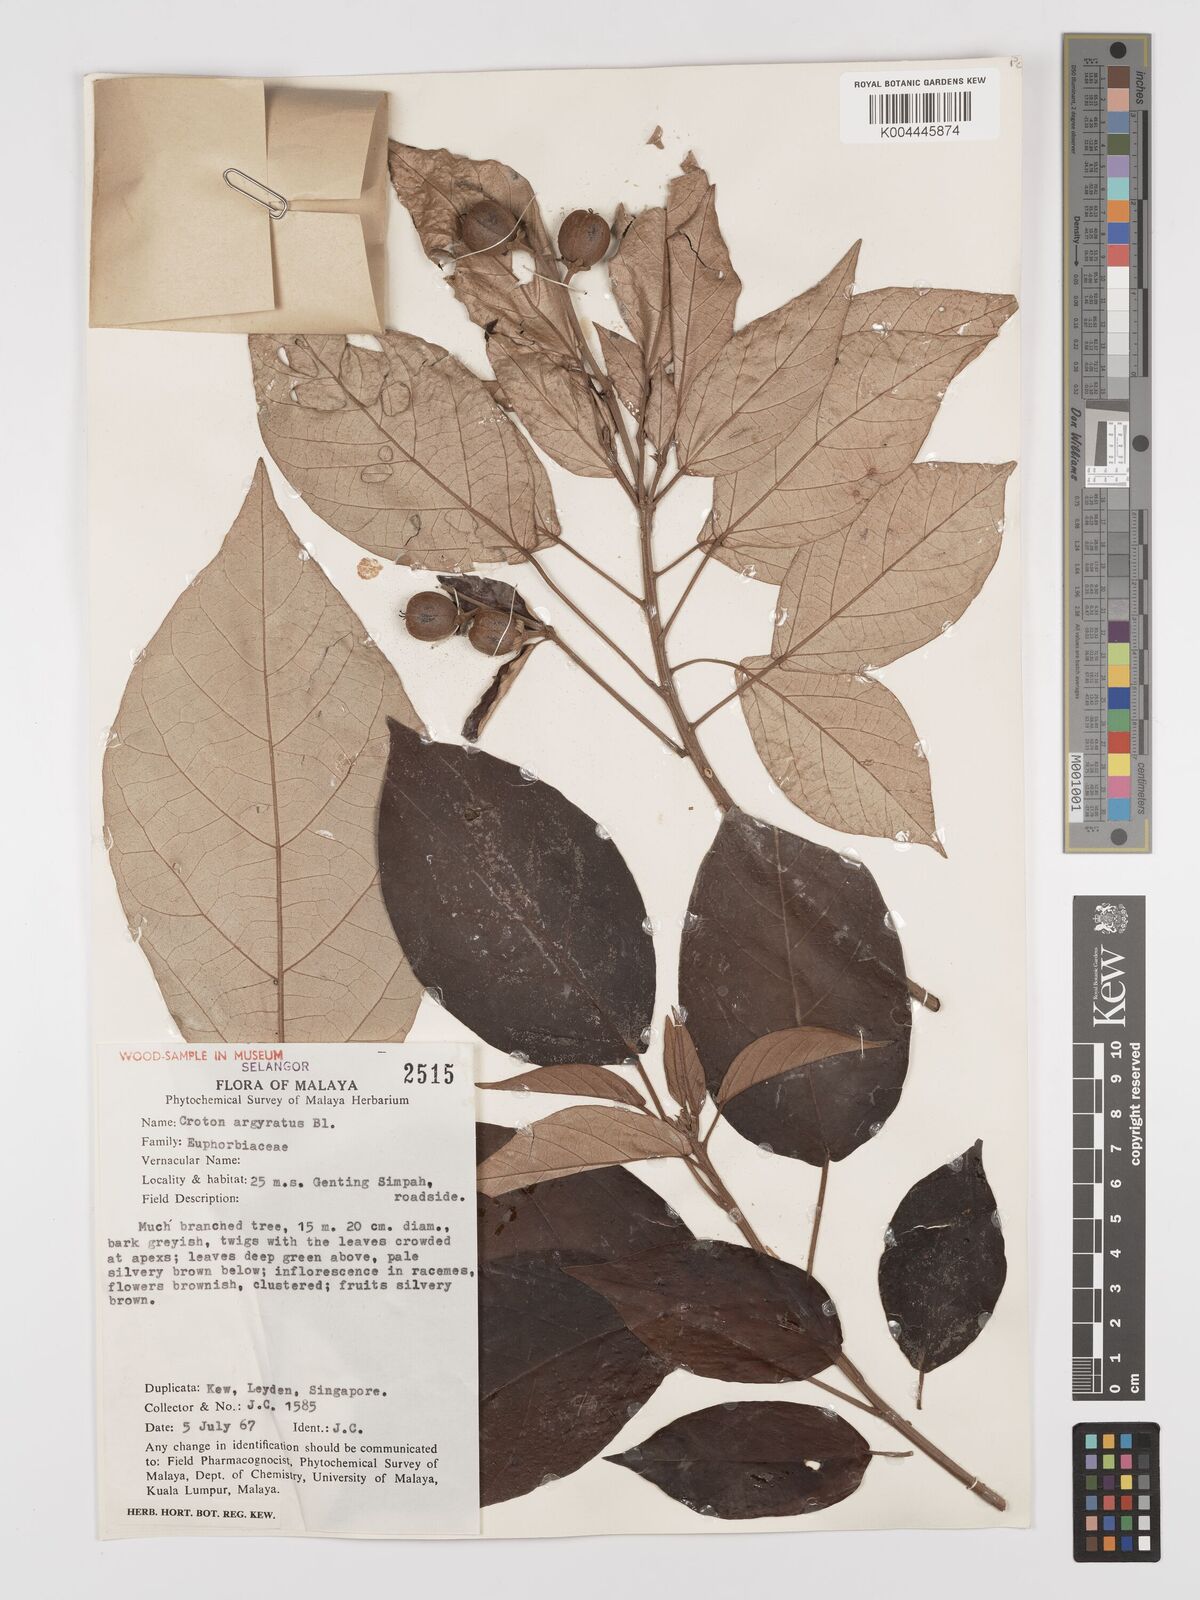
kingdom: Plantae
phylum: Tracheophyta
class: Magnoliopsida
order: Malpighiales
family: Euphorbiaceae
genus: Croton
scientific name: Croton argyratus
